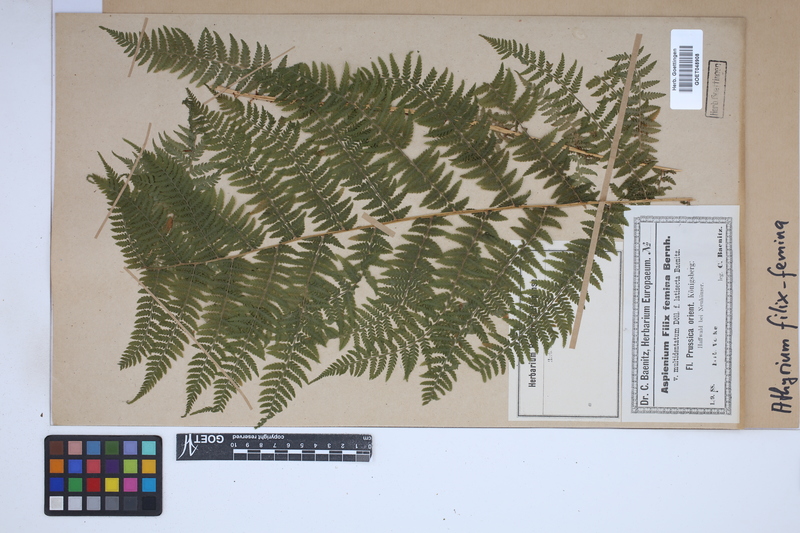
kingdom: Plantae
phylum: Tracheophyta
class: Polypodiopsida
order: Polypodiales
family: Athyriaceae
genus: Athyrium
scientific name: Athyrium filix-femina
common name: Lady fern
